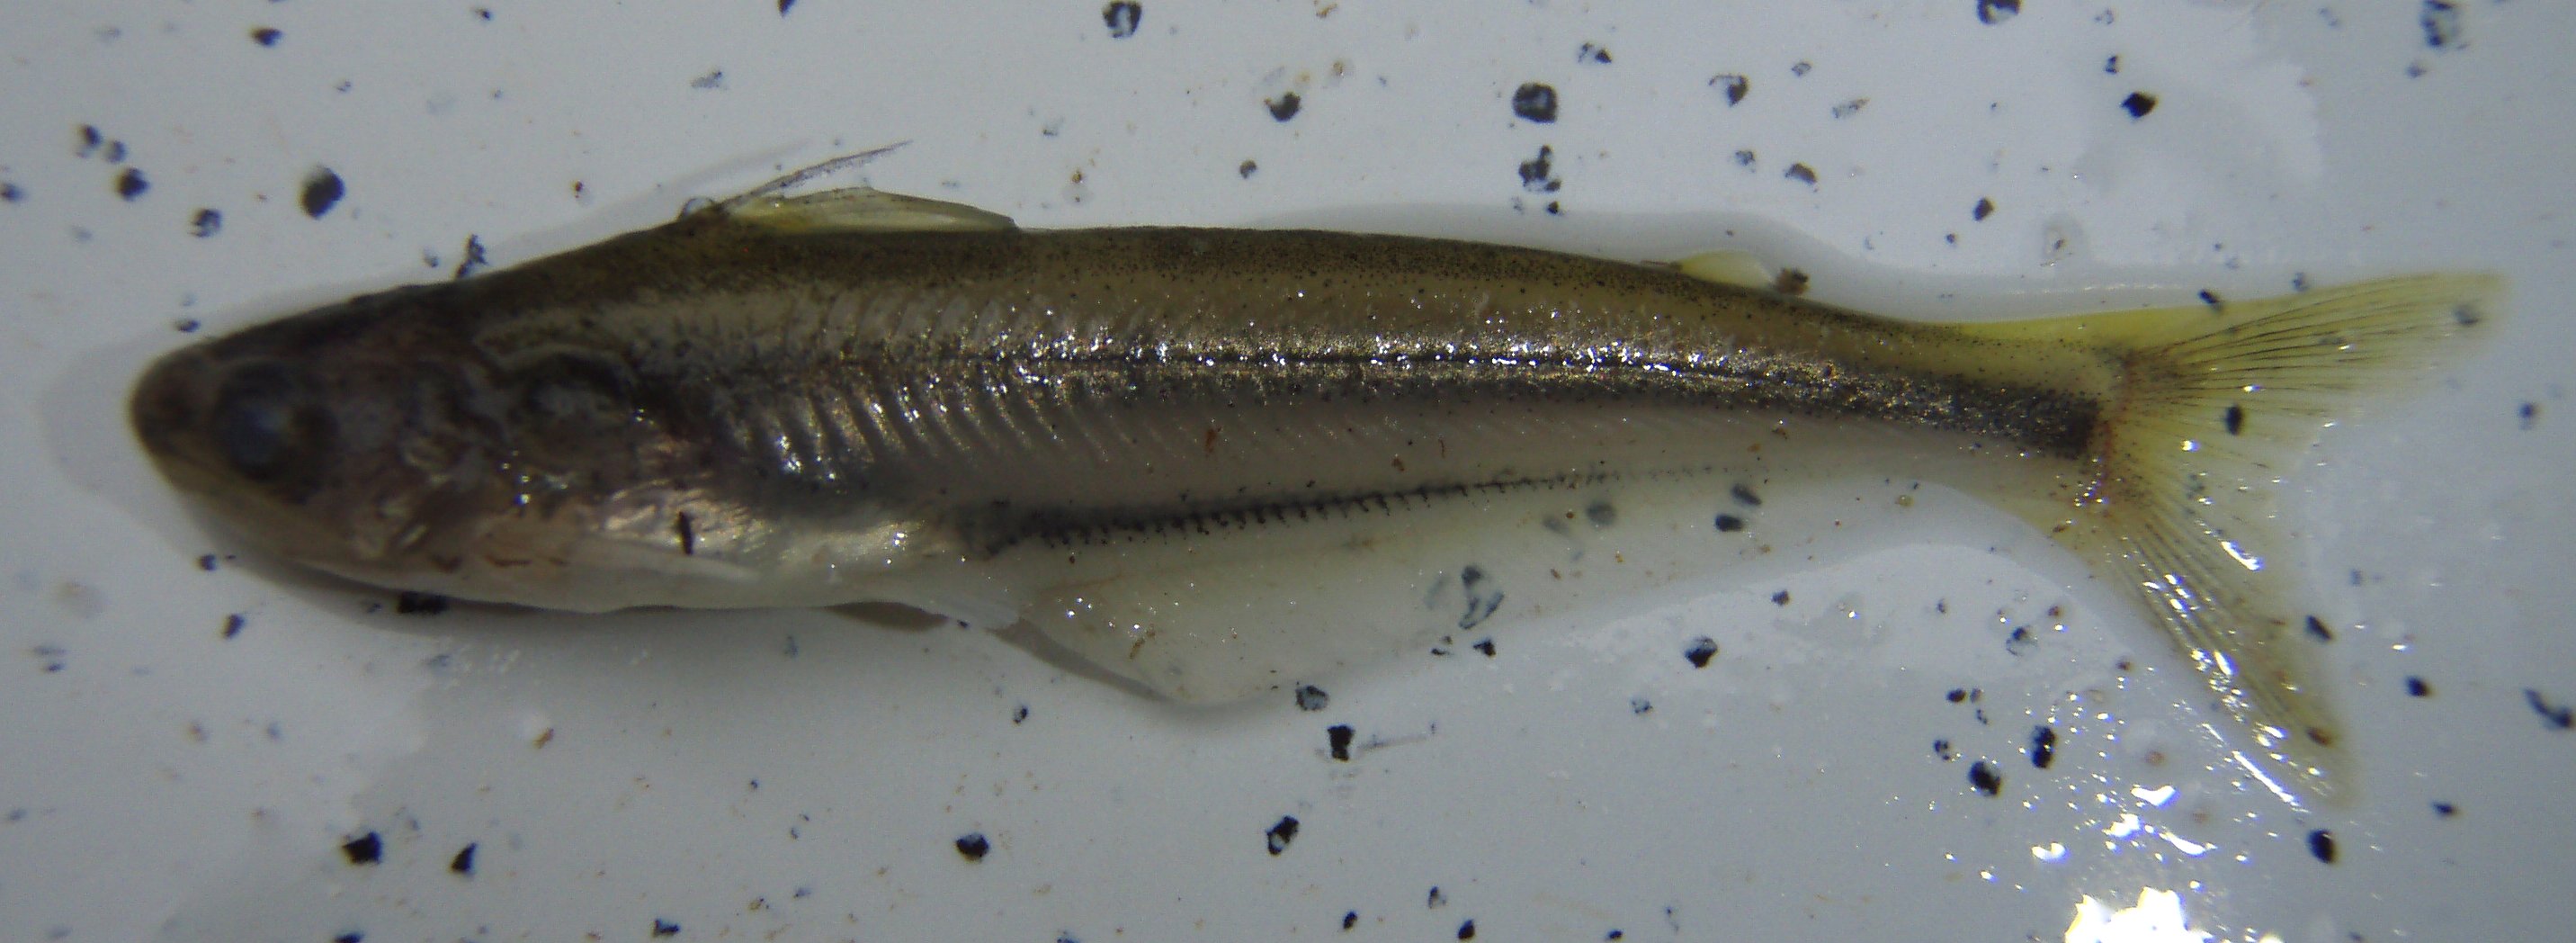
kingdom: Animalia
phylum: Chordata
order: Siluriformes
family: Schilbeidae
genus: Pareutropius
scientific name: Pareutropius debauwi
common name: African glass catfish
